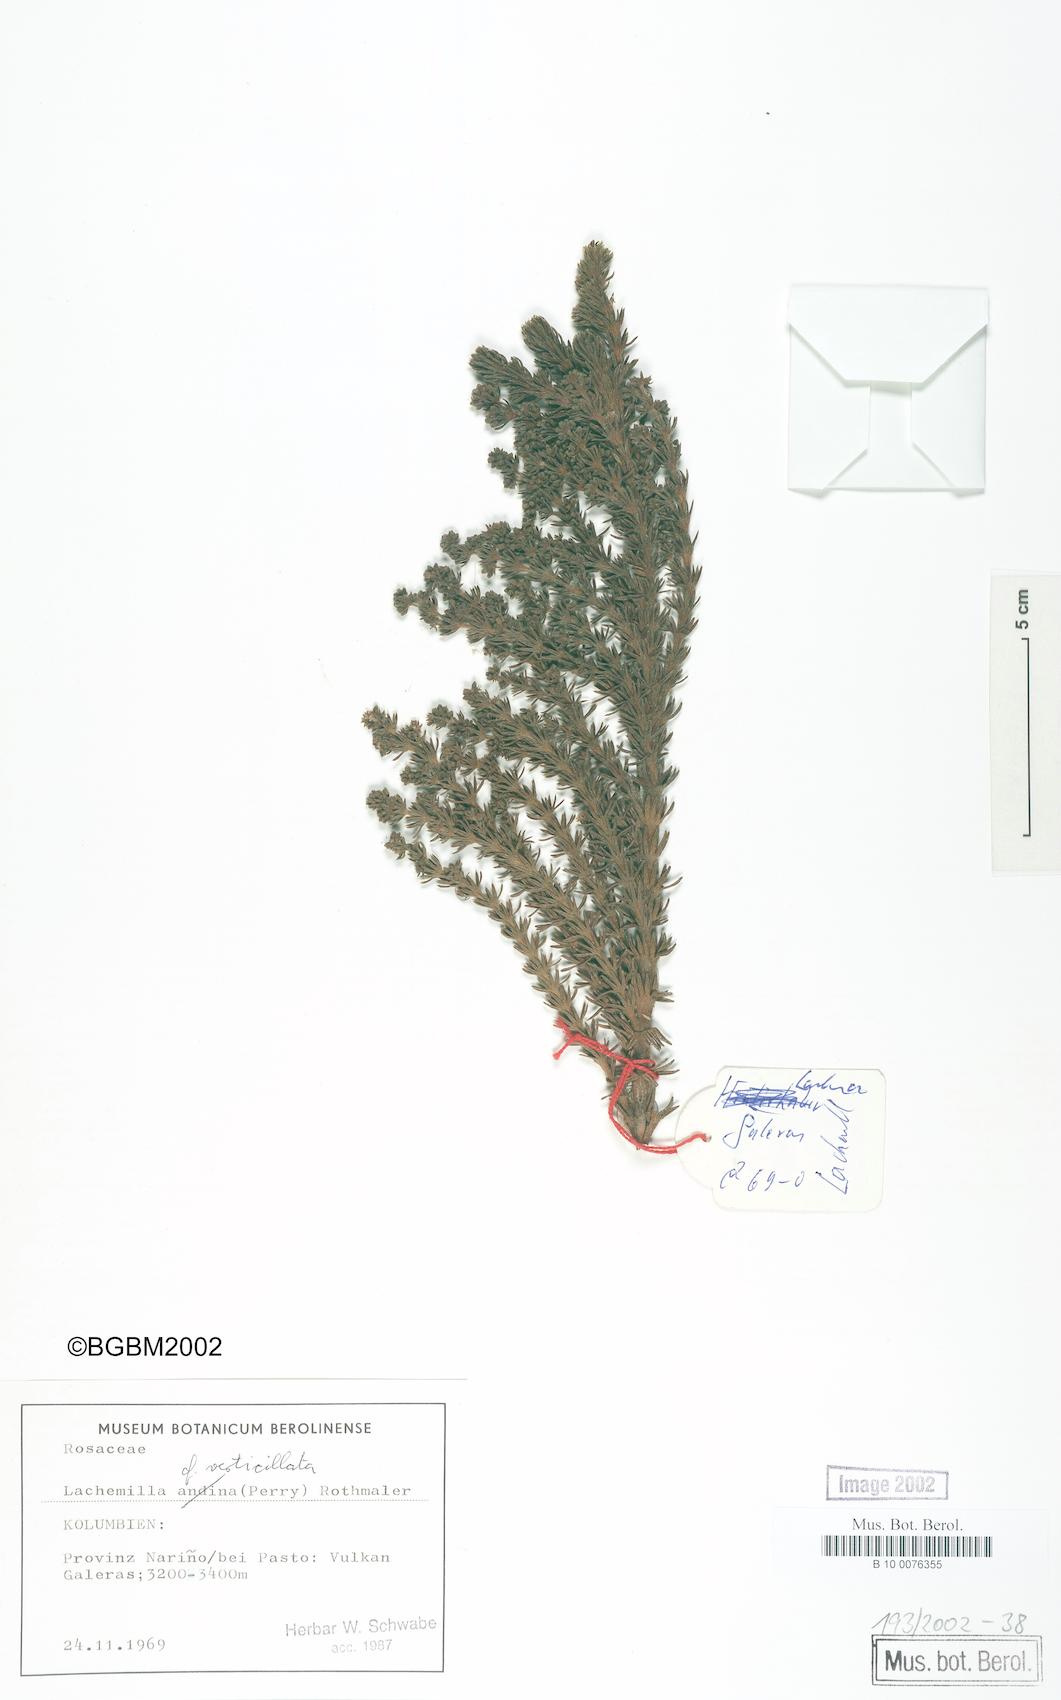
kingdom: Plantae
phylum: Tracheophyta
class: Magnoliopsida
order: Rosales
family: Rosaceae
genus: Lachemilla
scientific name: Lachemilla verticillata
